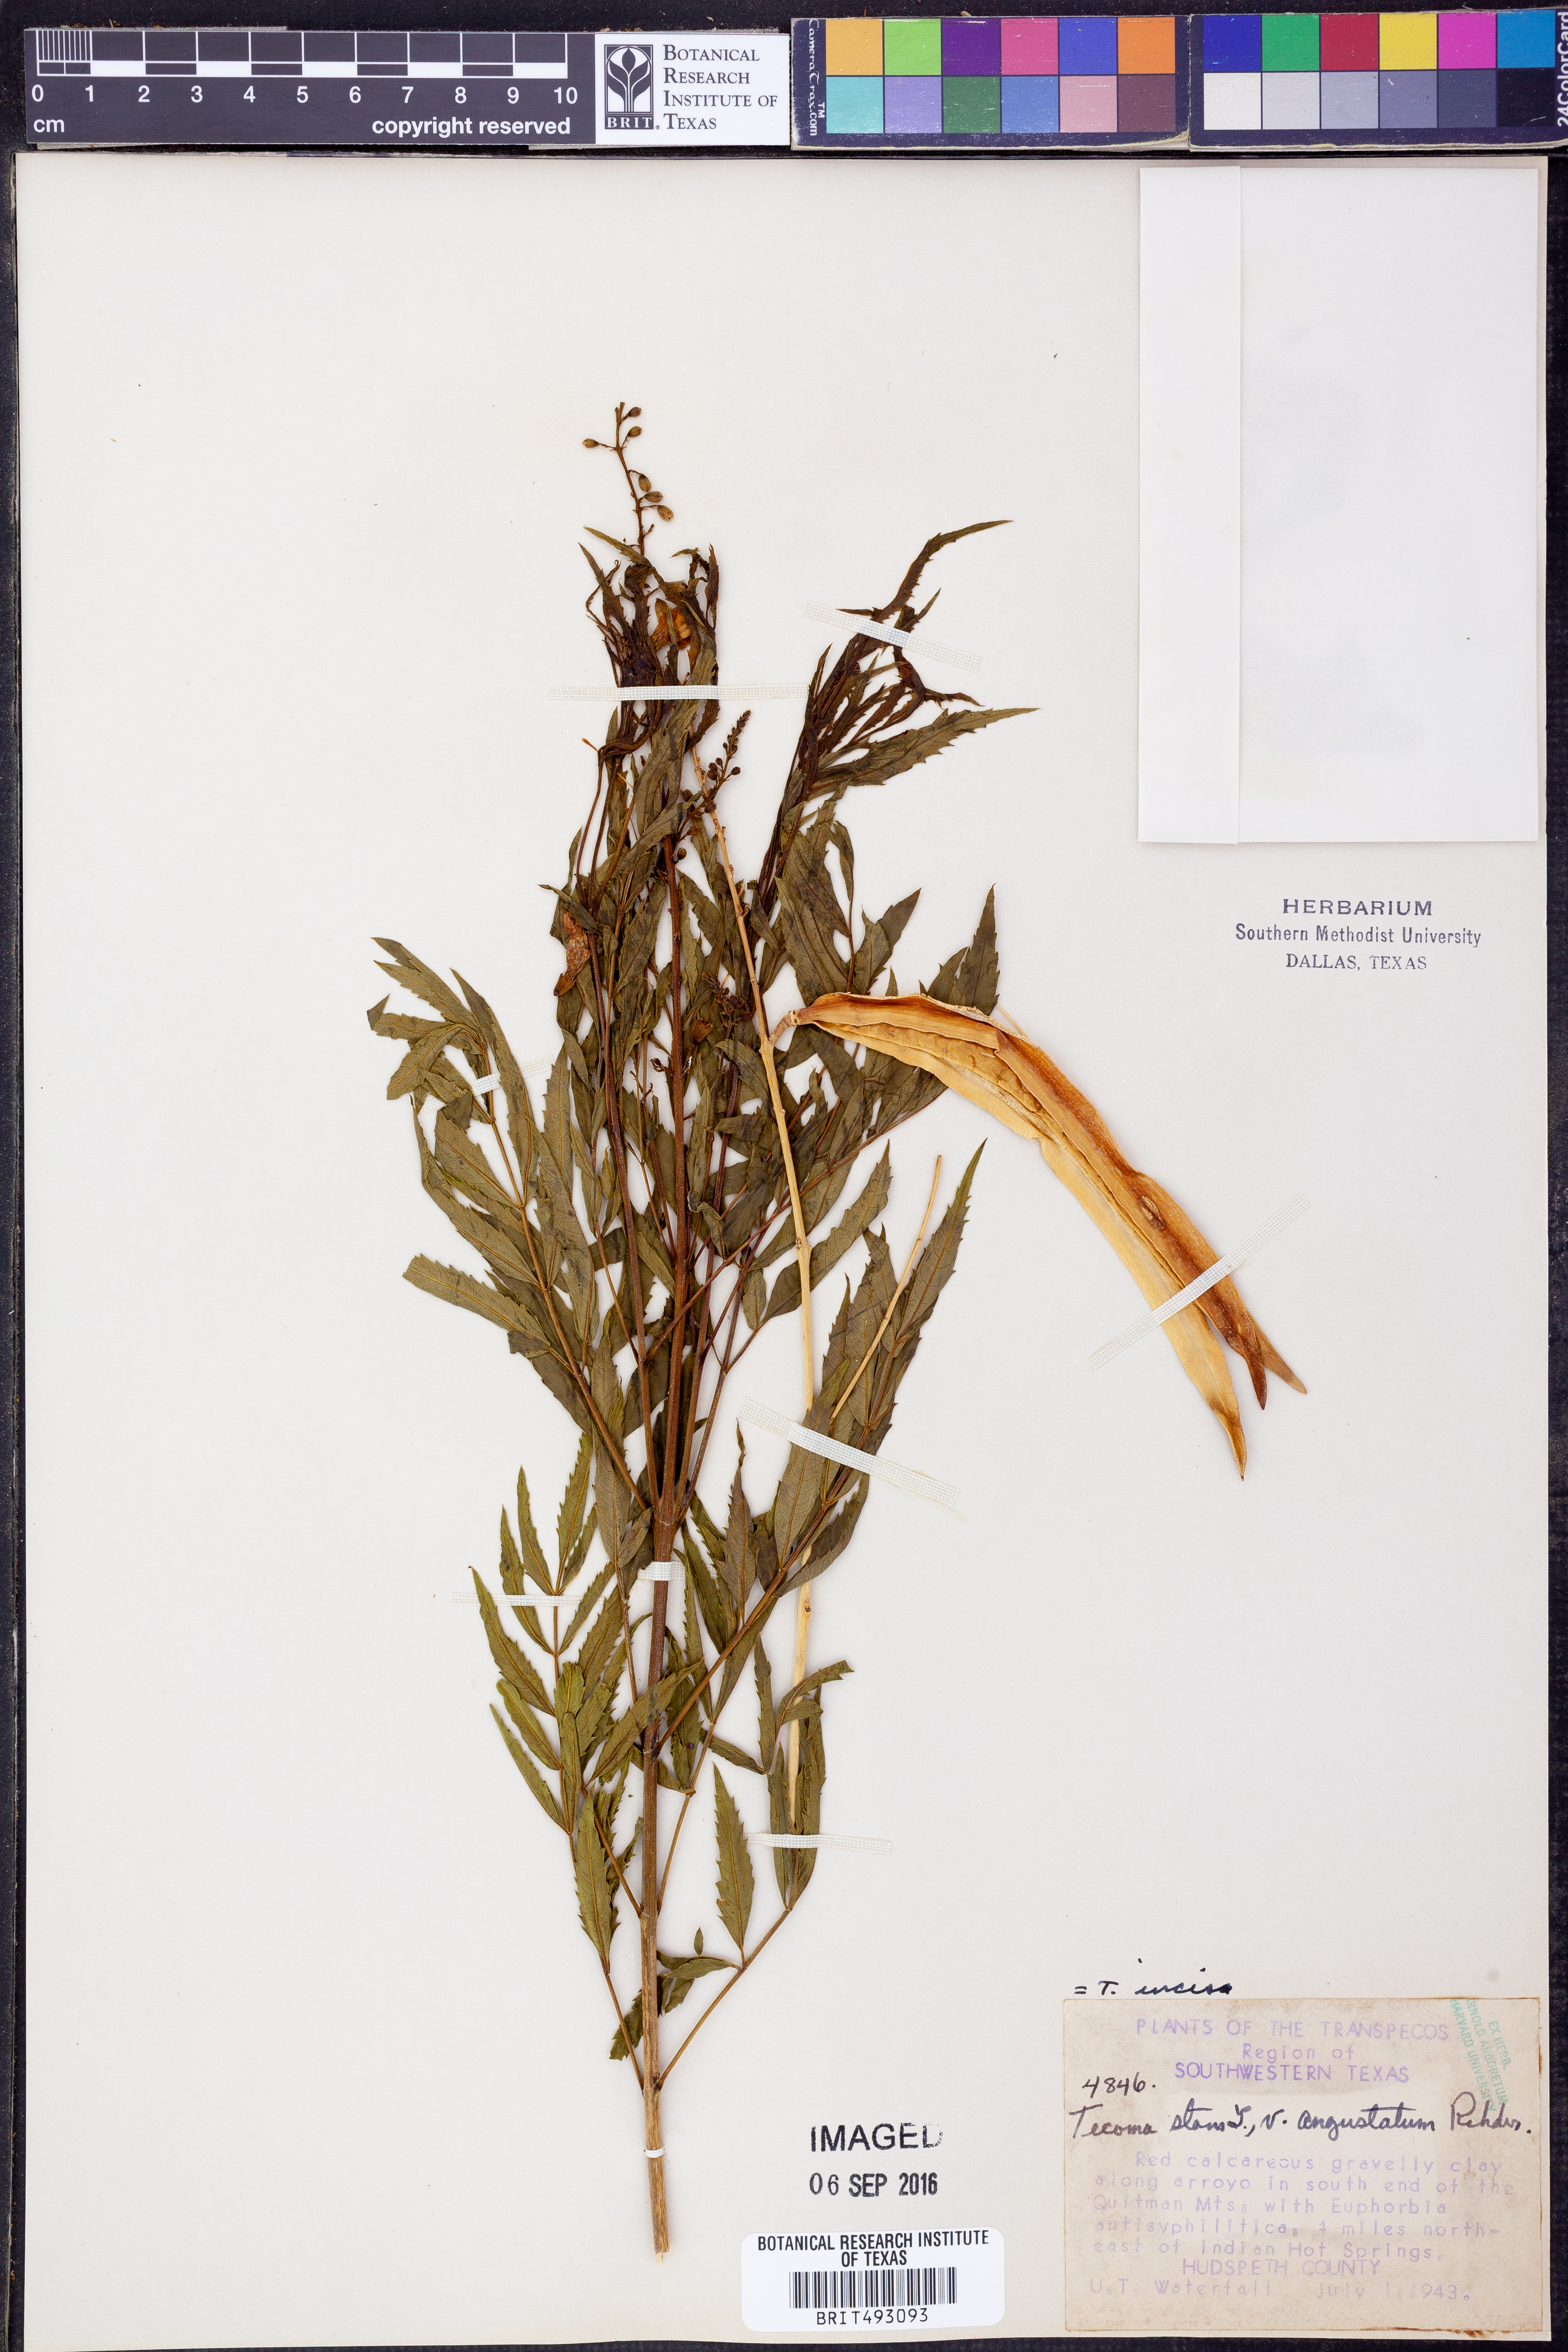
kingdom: Plantae
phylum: Tracheophyta
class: Magnoliopsida
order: Lamiales
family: Bignoniaceae
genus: Tecoma
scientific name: Tecoma
